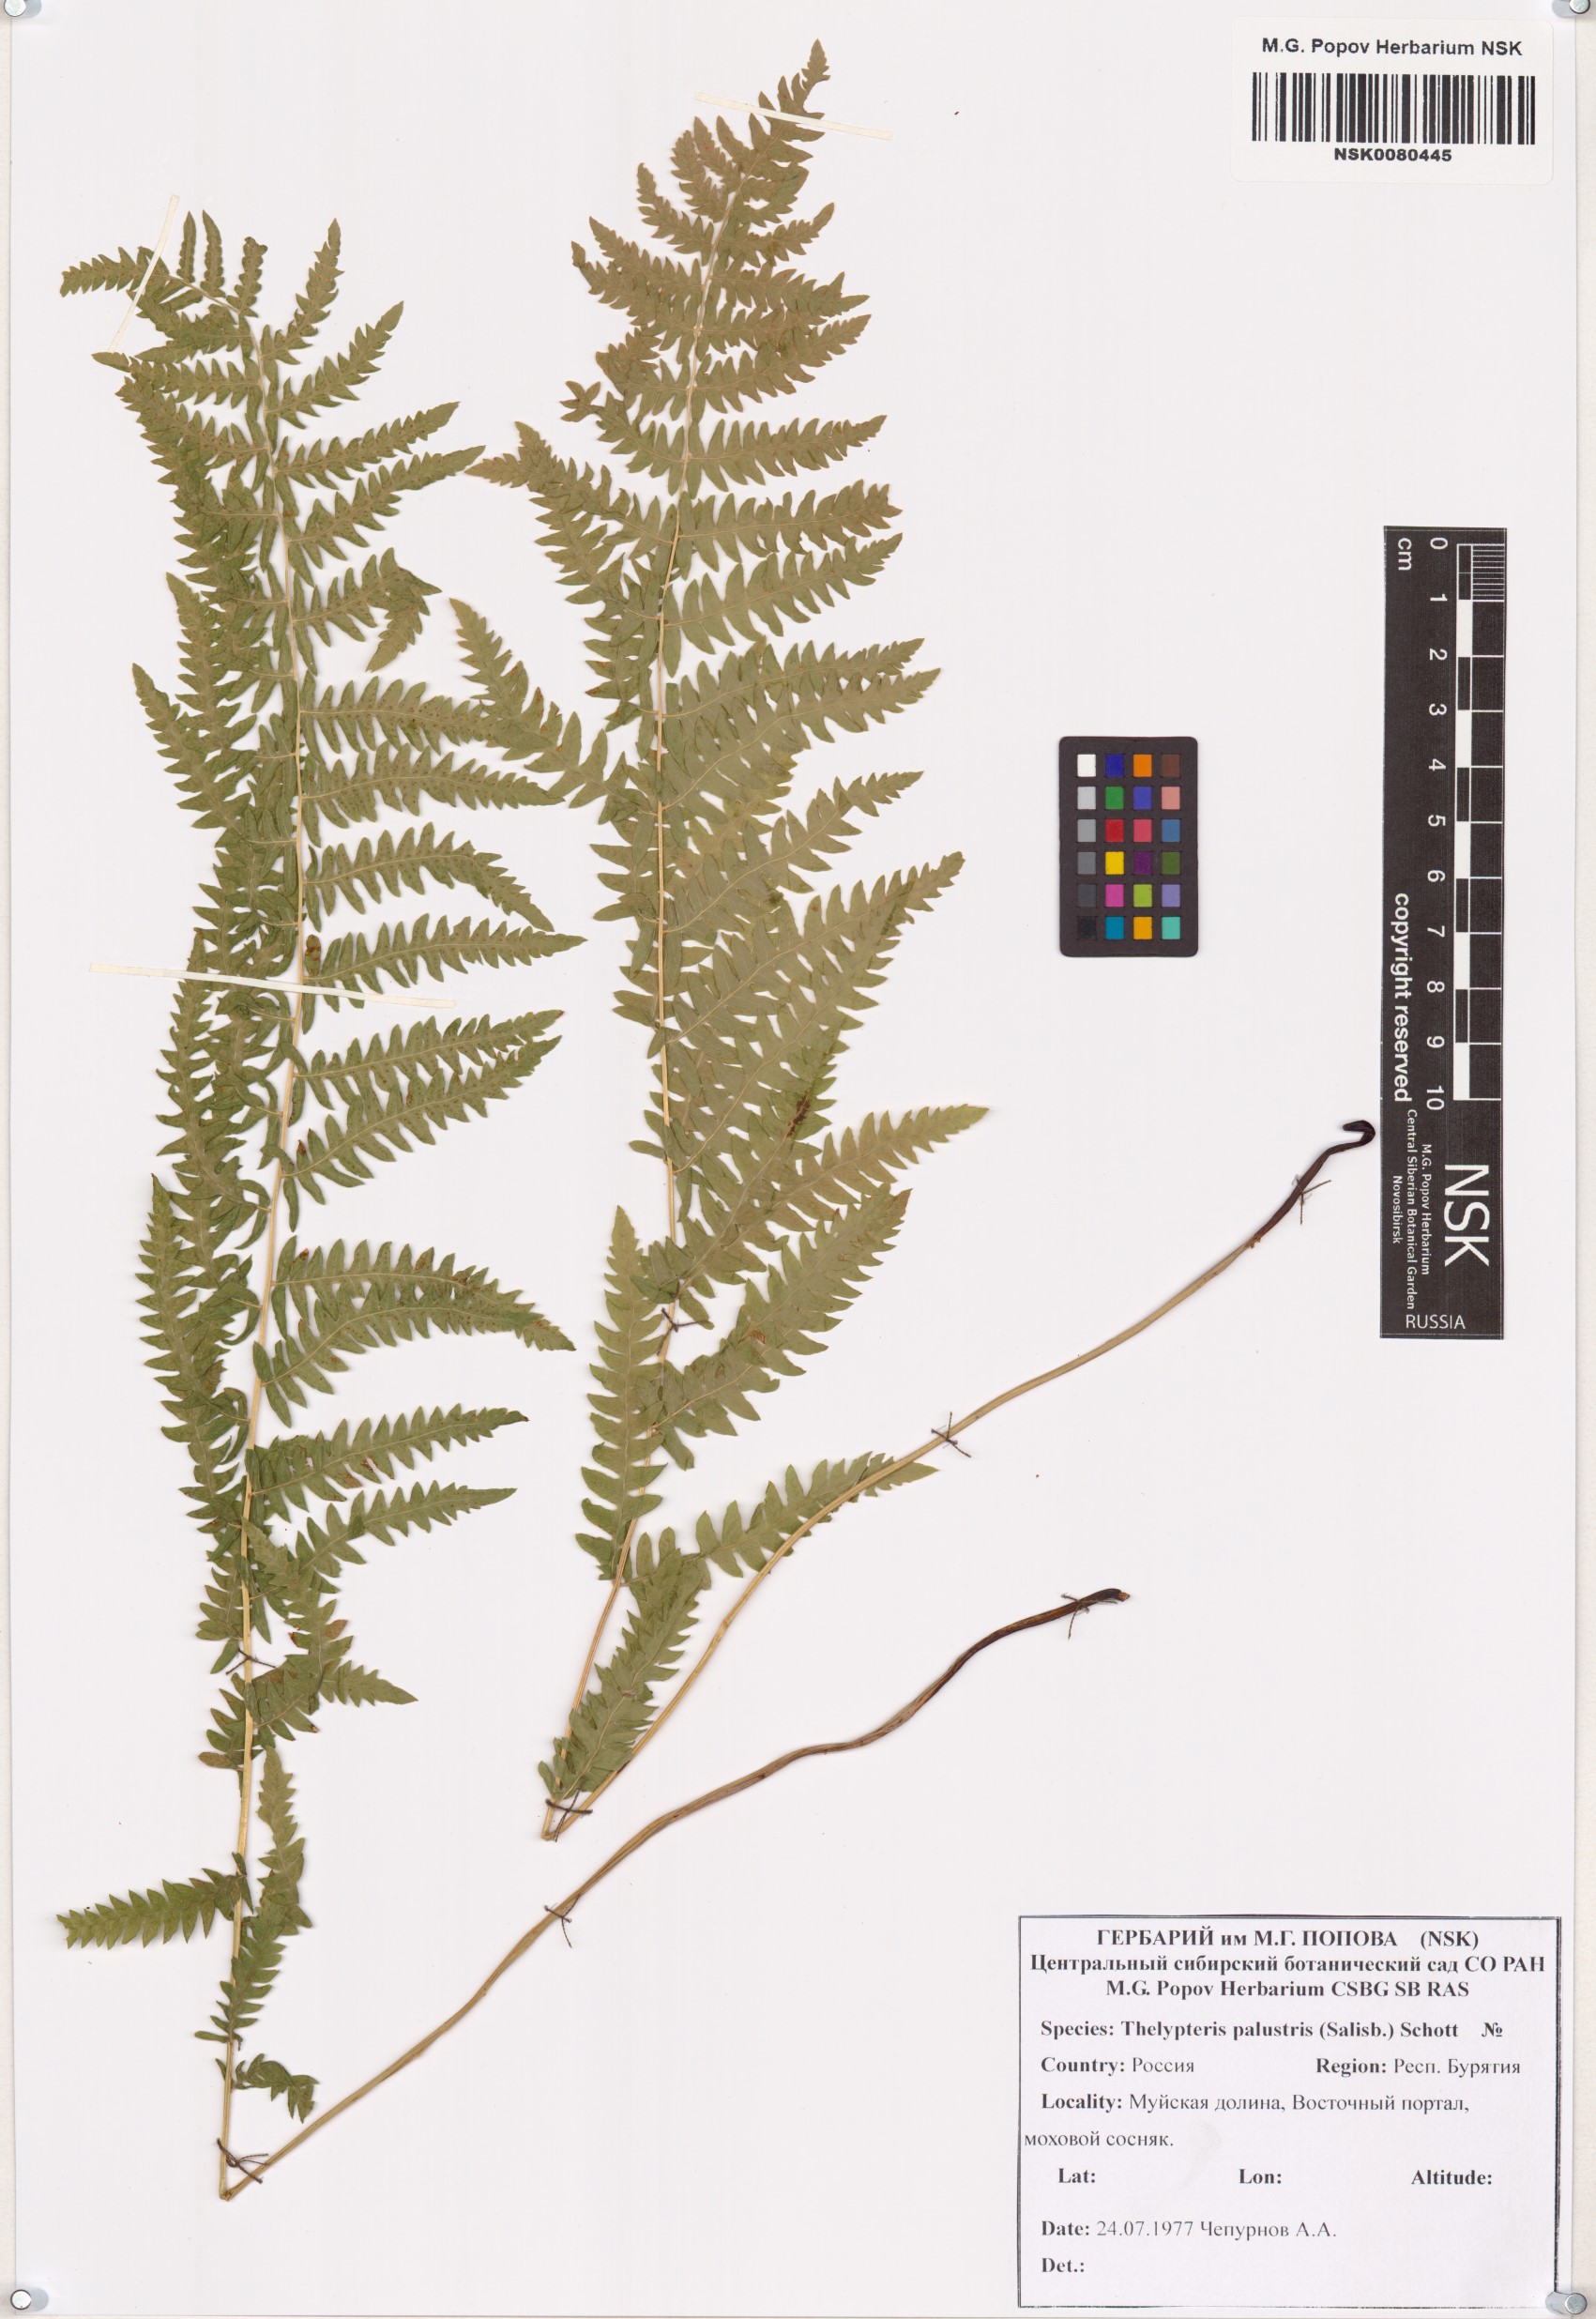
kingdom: Plantae
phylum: Tracheophyta
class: Polypodiopsida
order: Polypodiales
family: Thelypteridaceae
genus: Thelypteris
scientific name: Thelypteris palustris
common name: Marsh fern
